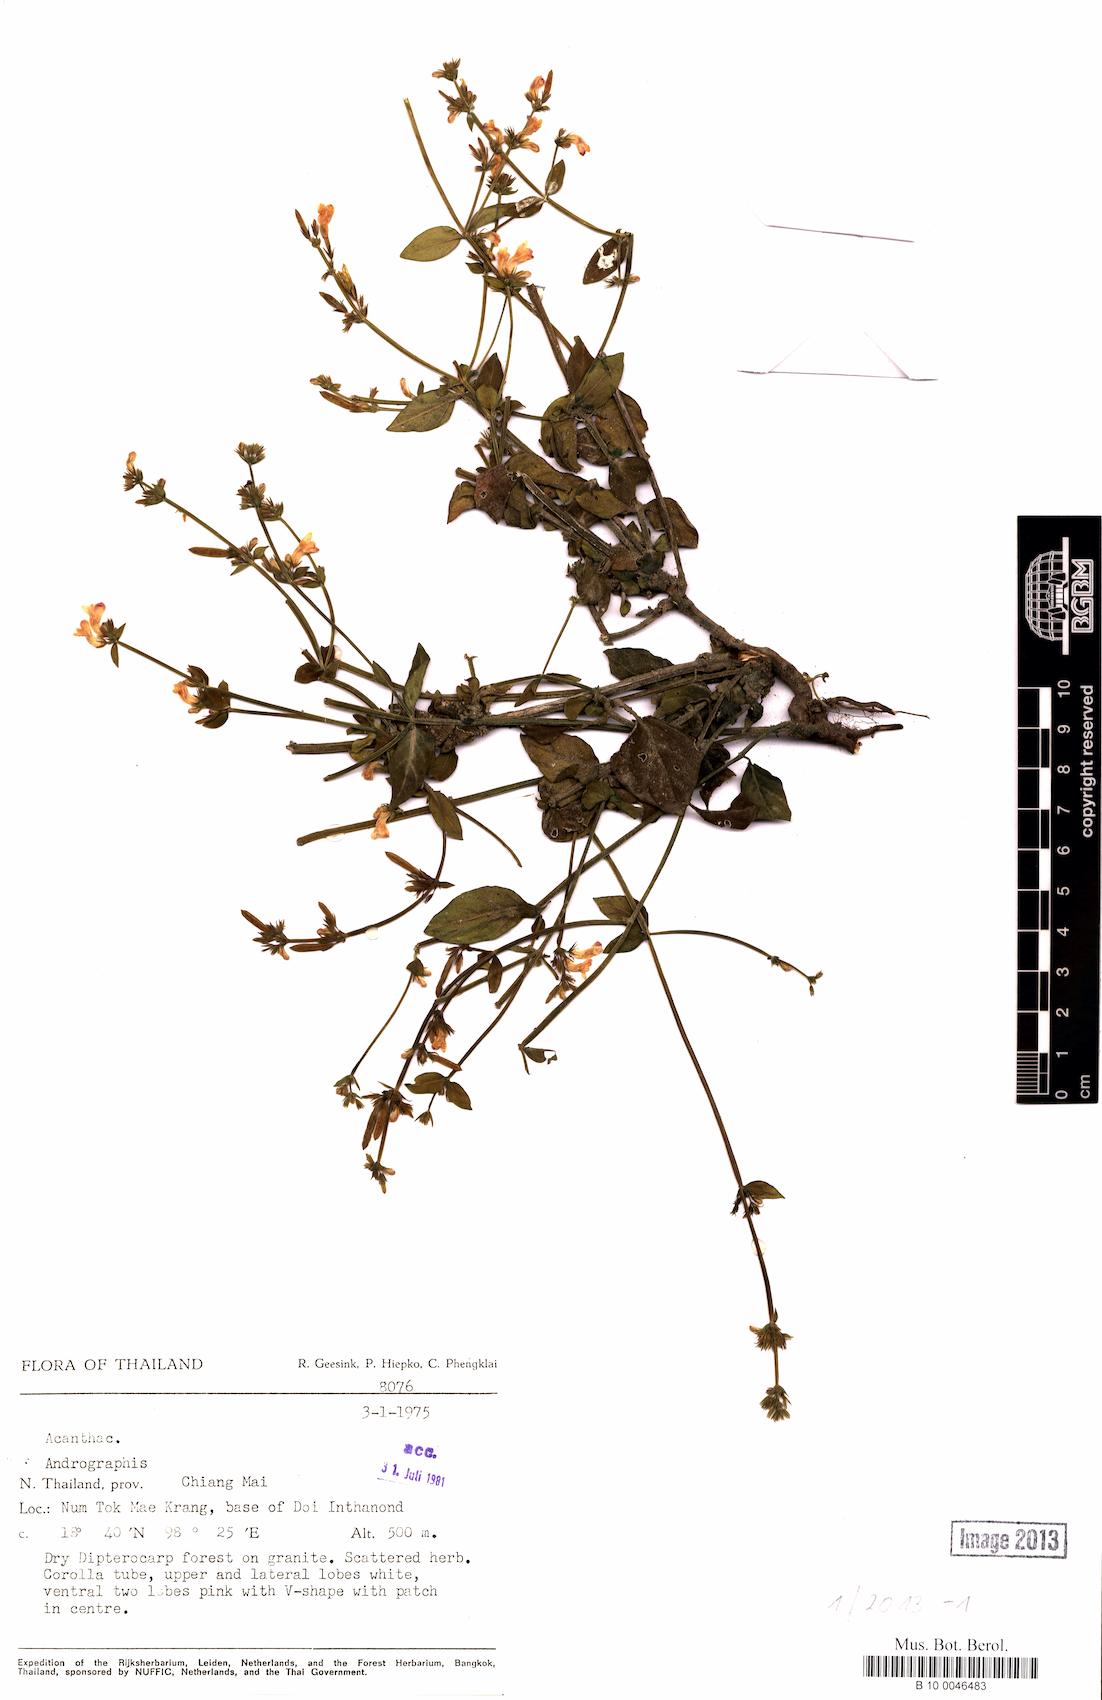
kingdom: Plantae
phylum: Tracheophyta
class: Magnoliopsida
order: Lamiales
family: Acanthaceae
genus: Andrographis
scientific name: Andrographis
